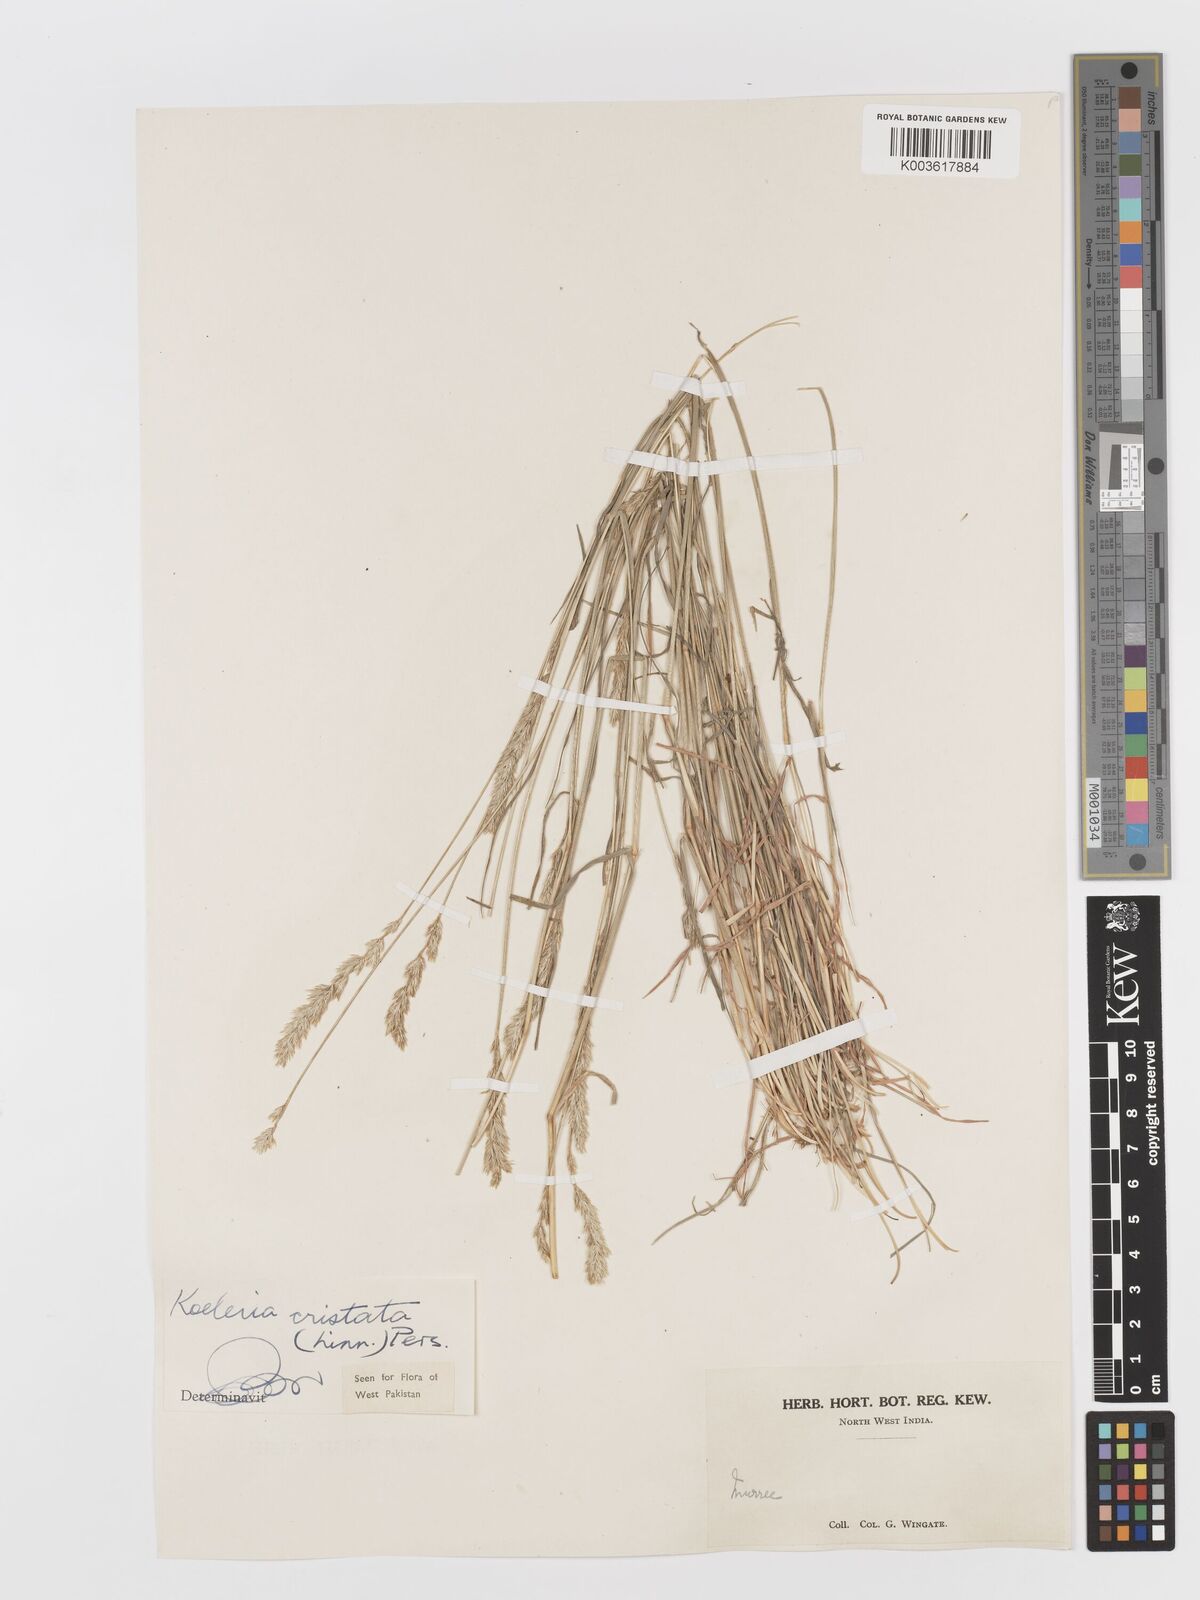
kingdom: Plantae
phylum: Tracheophyta
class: Liliopsida
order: Poales
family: Poaceae
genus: Koeleria
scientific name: Koeleria
